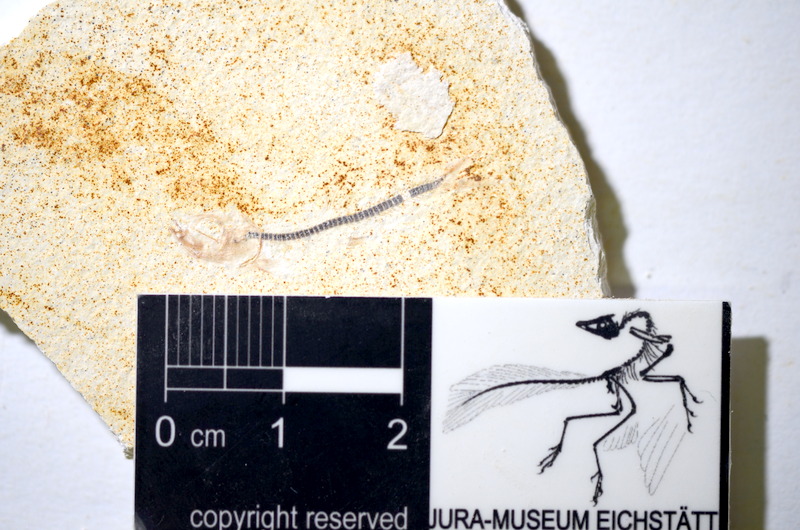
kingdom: Animalia
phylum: Chordata
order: Salmoniformes
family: Orthogonikleithridae
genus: Orthogonikleithrus
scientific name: Orthogonikleithrus hoelli
